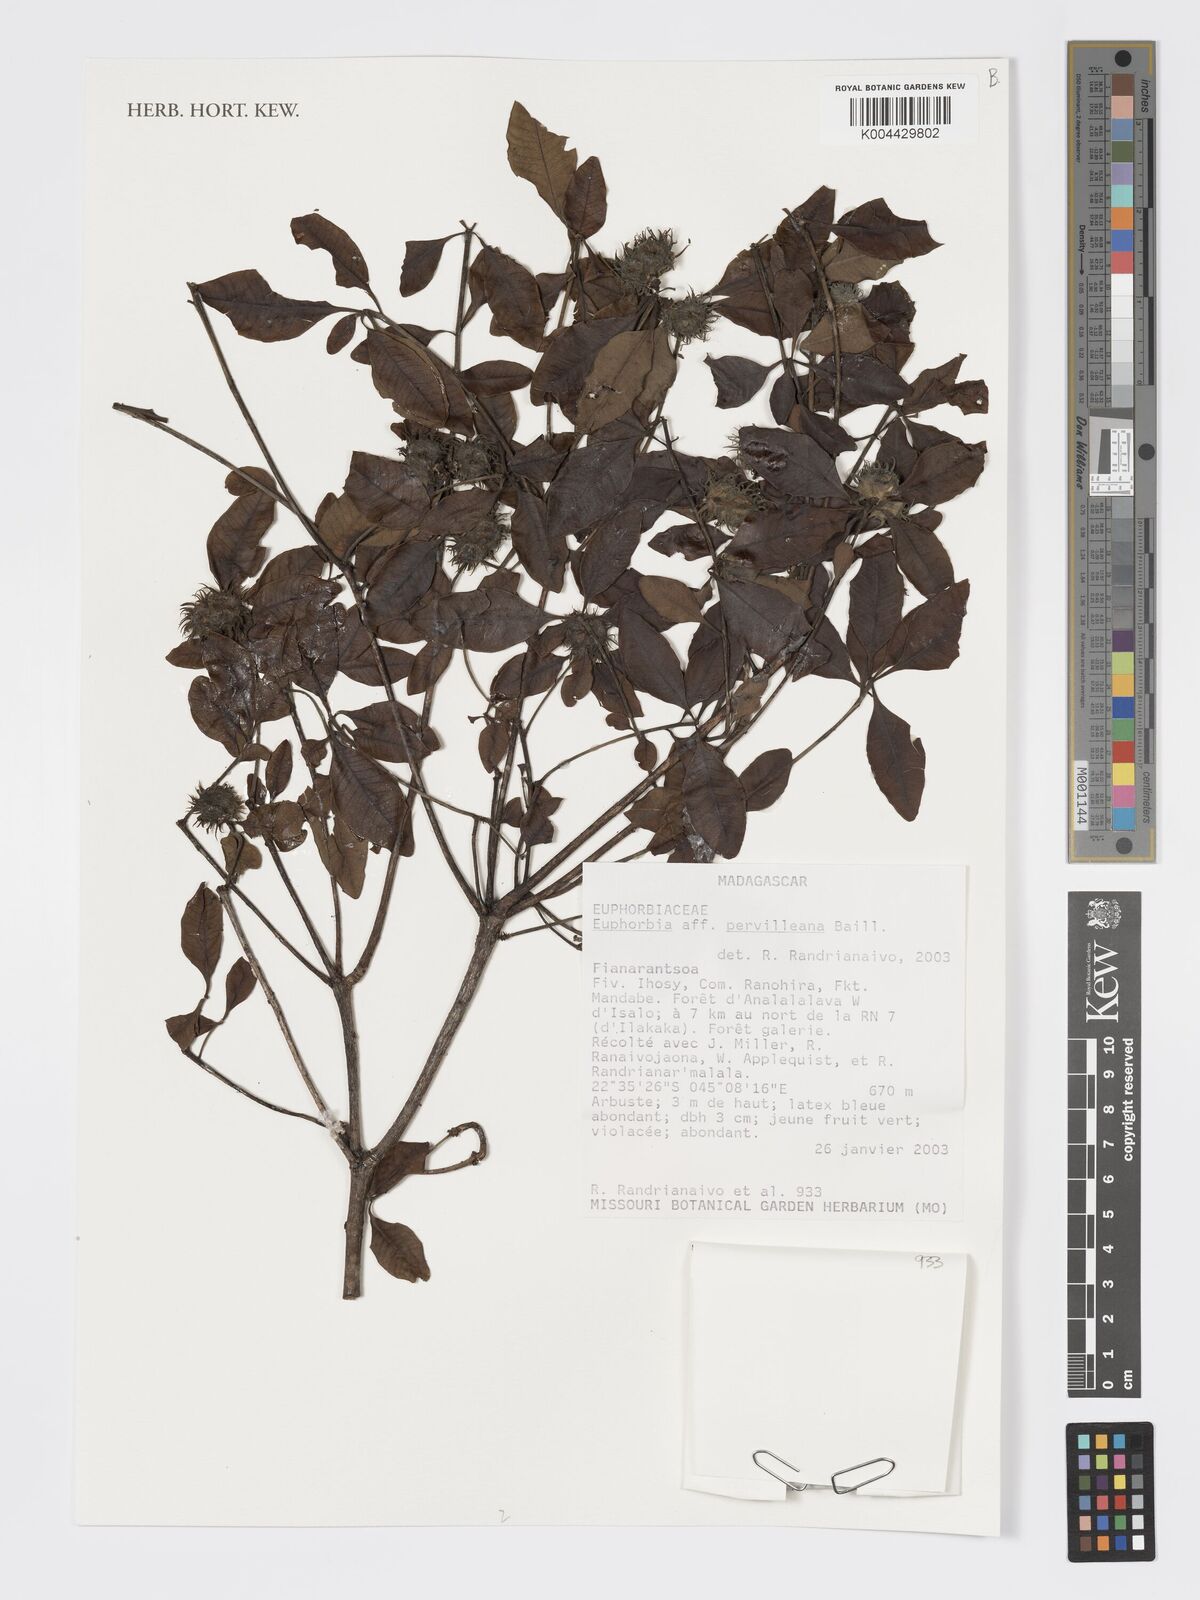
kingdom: Plantae
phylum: Tracheophyta
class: Magnoliopsida
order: Malpighiales
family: Euphorbiaceae
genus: Euphorbia
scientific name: Euphorbia pervilleana
